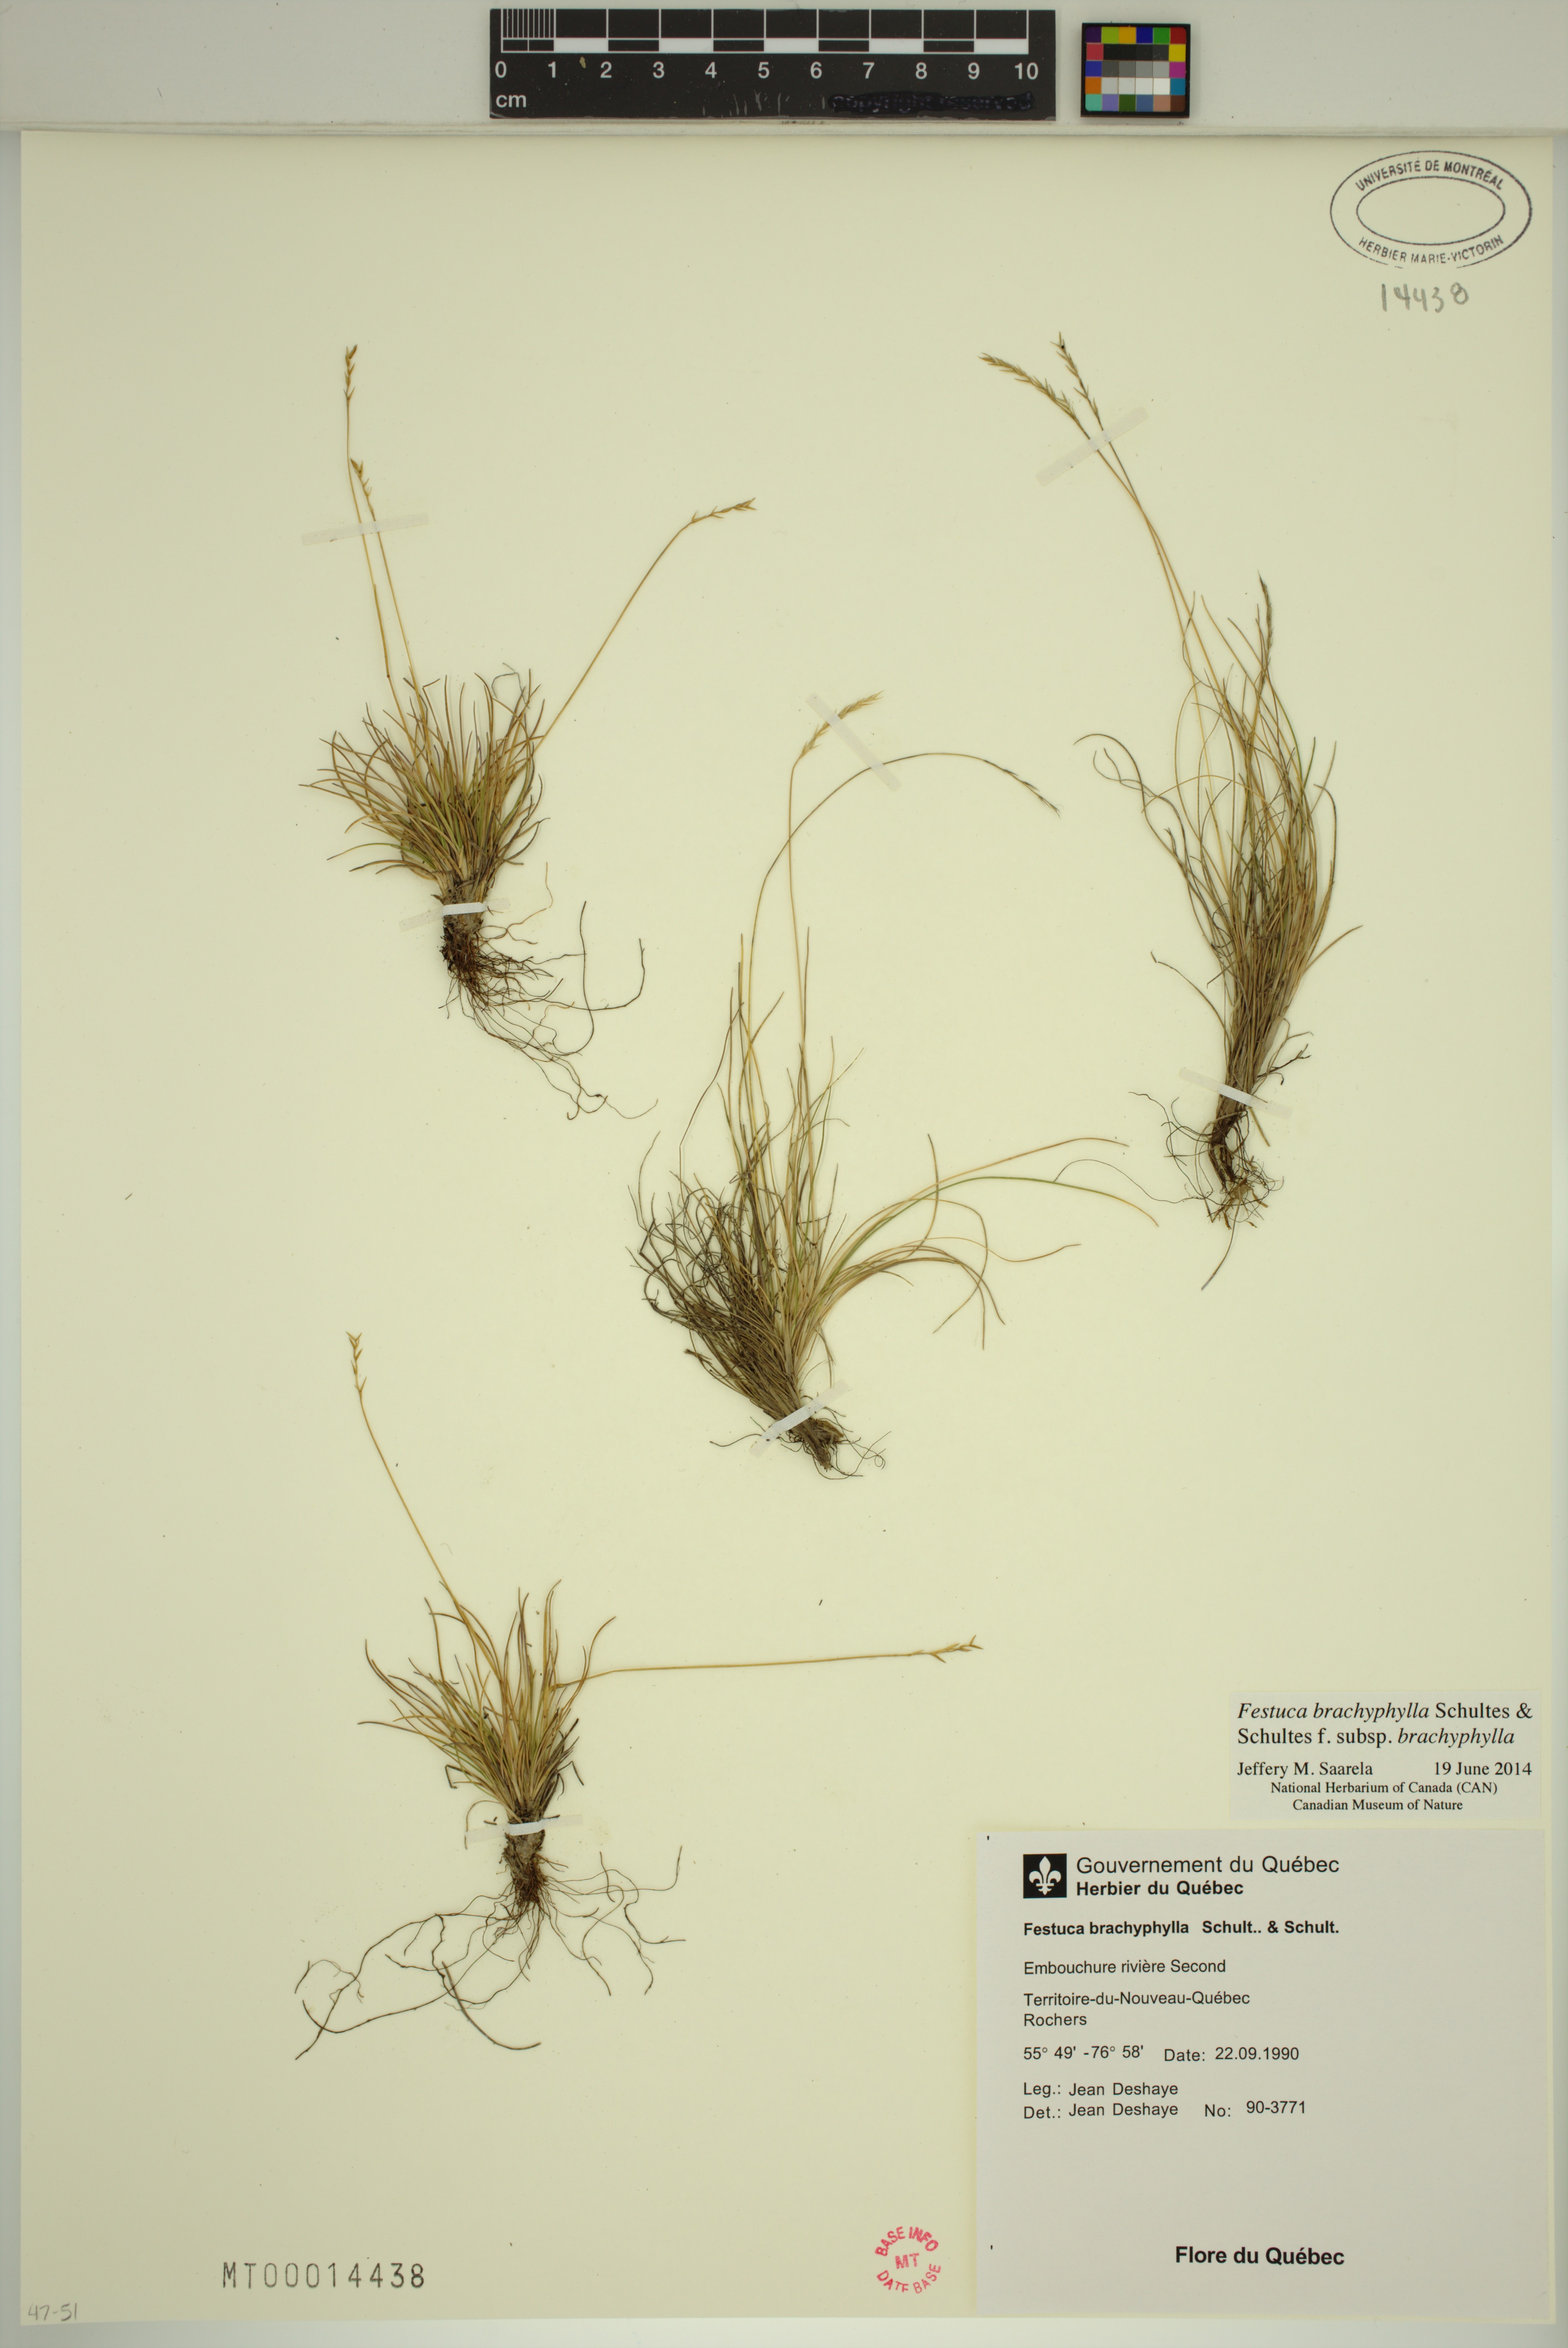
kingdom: Plantae
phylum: Tracheophyta
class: Liliopsida
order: Poales
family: Poaceae
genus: Festuca
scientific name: Festuca brachyphylla
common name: Alpine fescue
